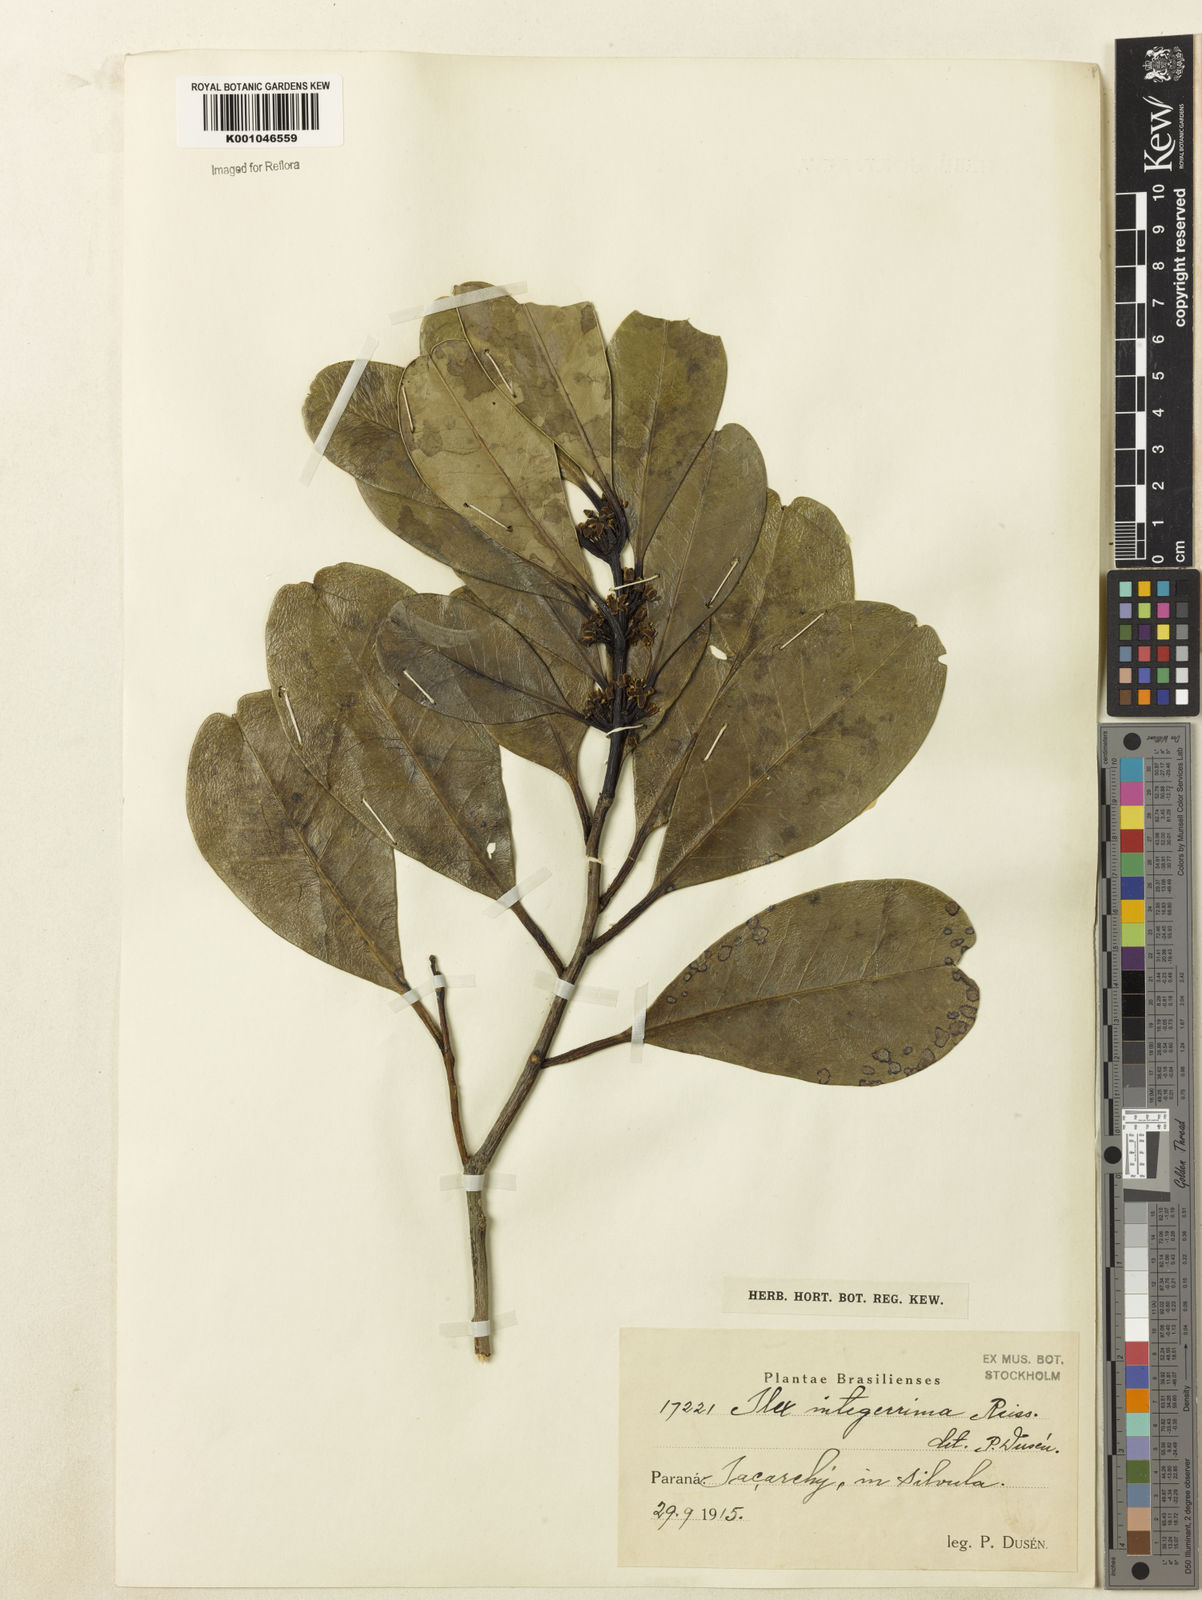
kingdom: Plantae
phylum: Tracheophyta
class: Magnoliopsida
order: Aquifoliales
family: Aquifoliaceae
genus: Ilex
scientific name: Ilex integerrima
